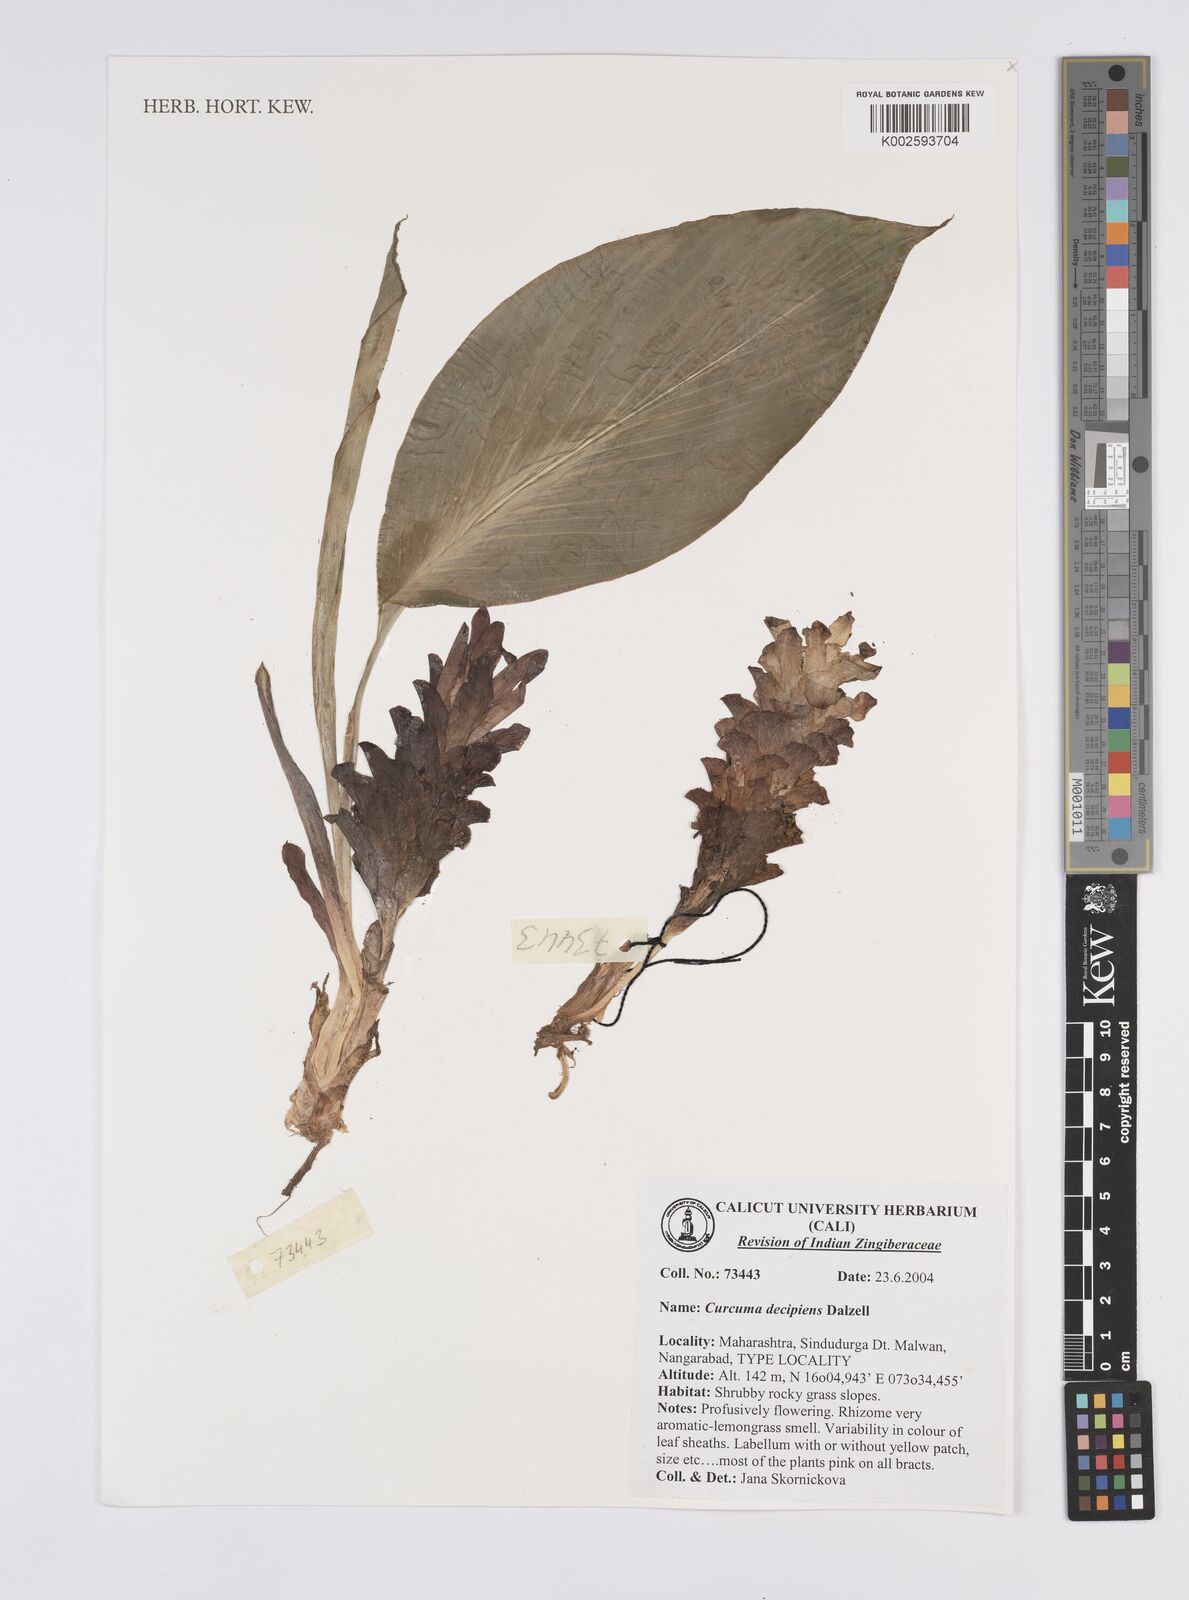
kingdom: Plantae
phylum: Tracheophyta
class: Liliopsida
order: Zingiberales
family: Zingiberaceae
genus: Curcuma
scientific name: Curcuma decipiens
